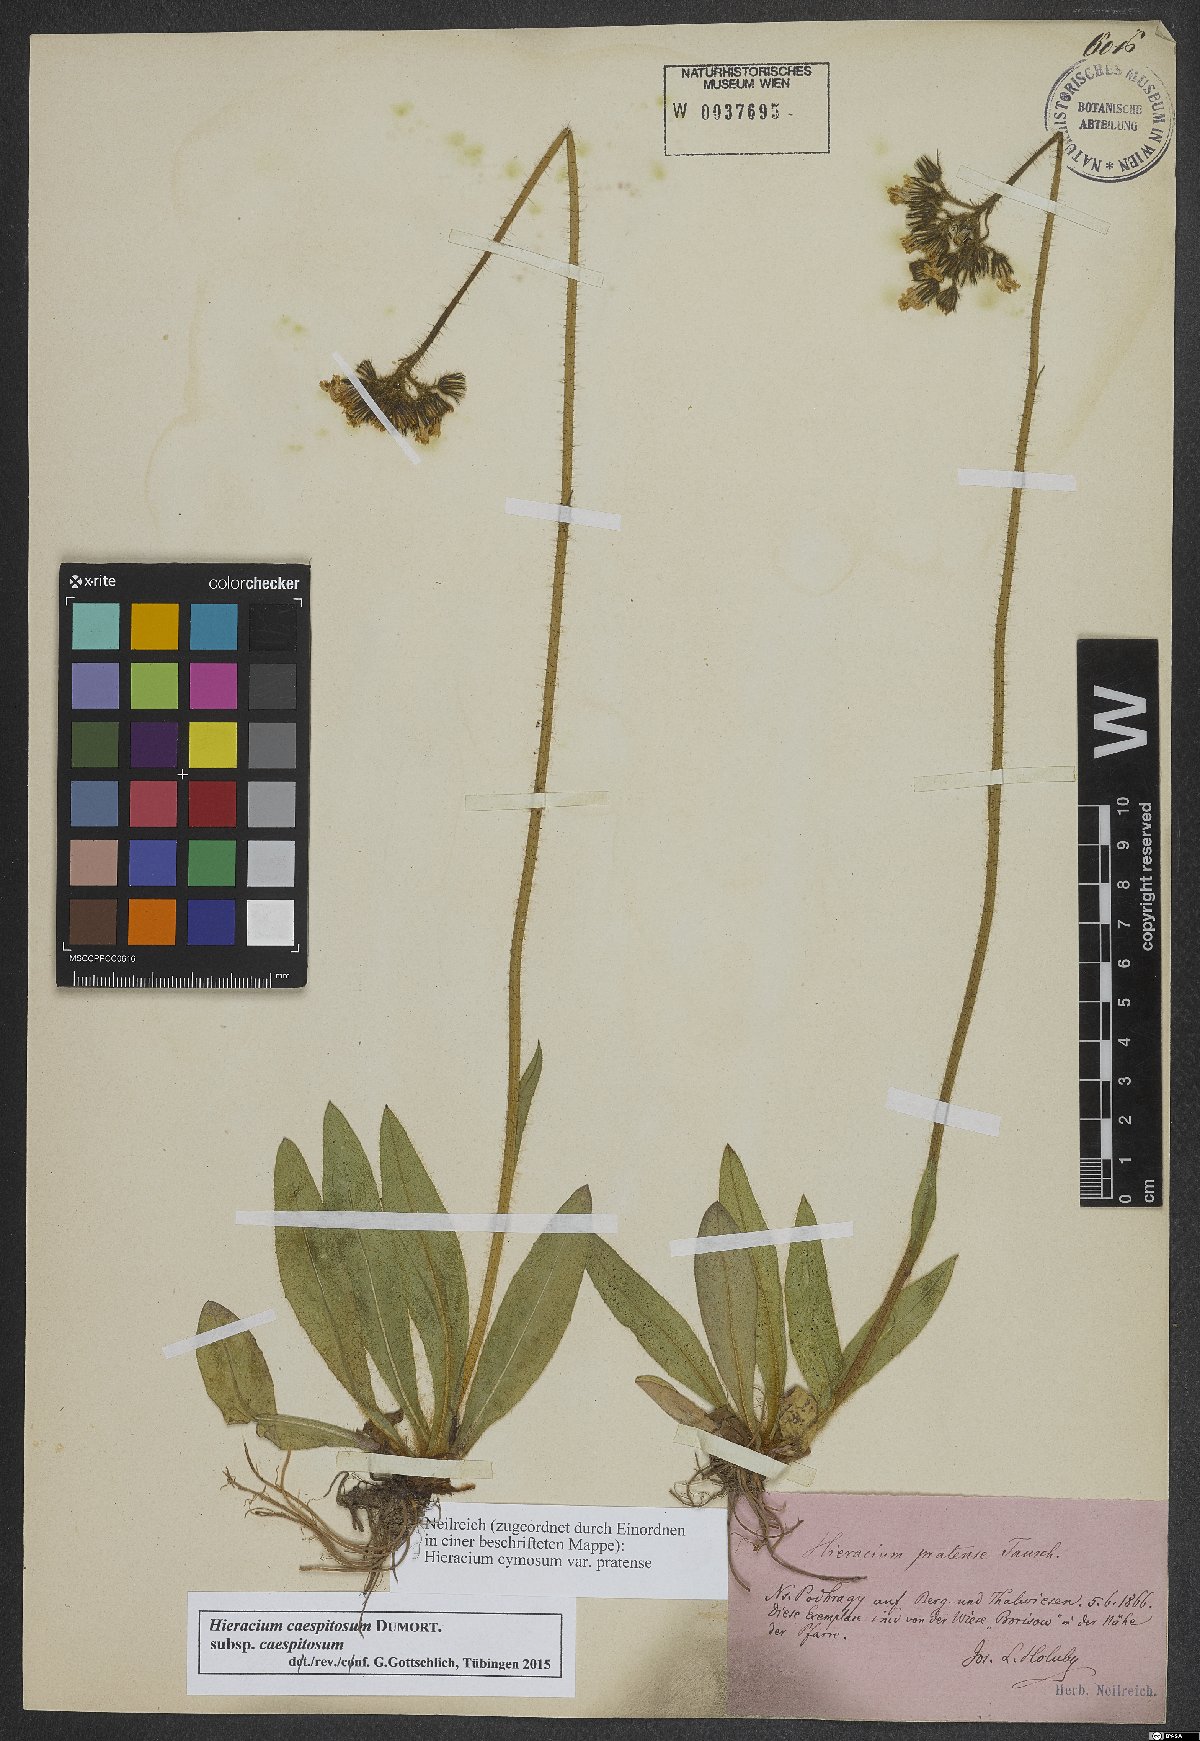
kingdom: Plantae
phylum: Tracheophyta
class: Magnoliopsida
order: Asterales
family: Asteraceae
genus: Pilosella
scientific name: Pilosella caespitosa
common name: Yellow fox-and-cubs
